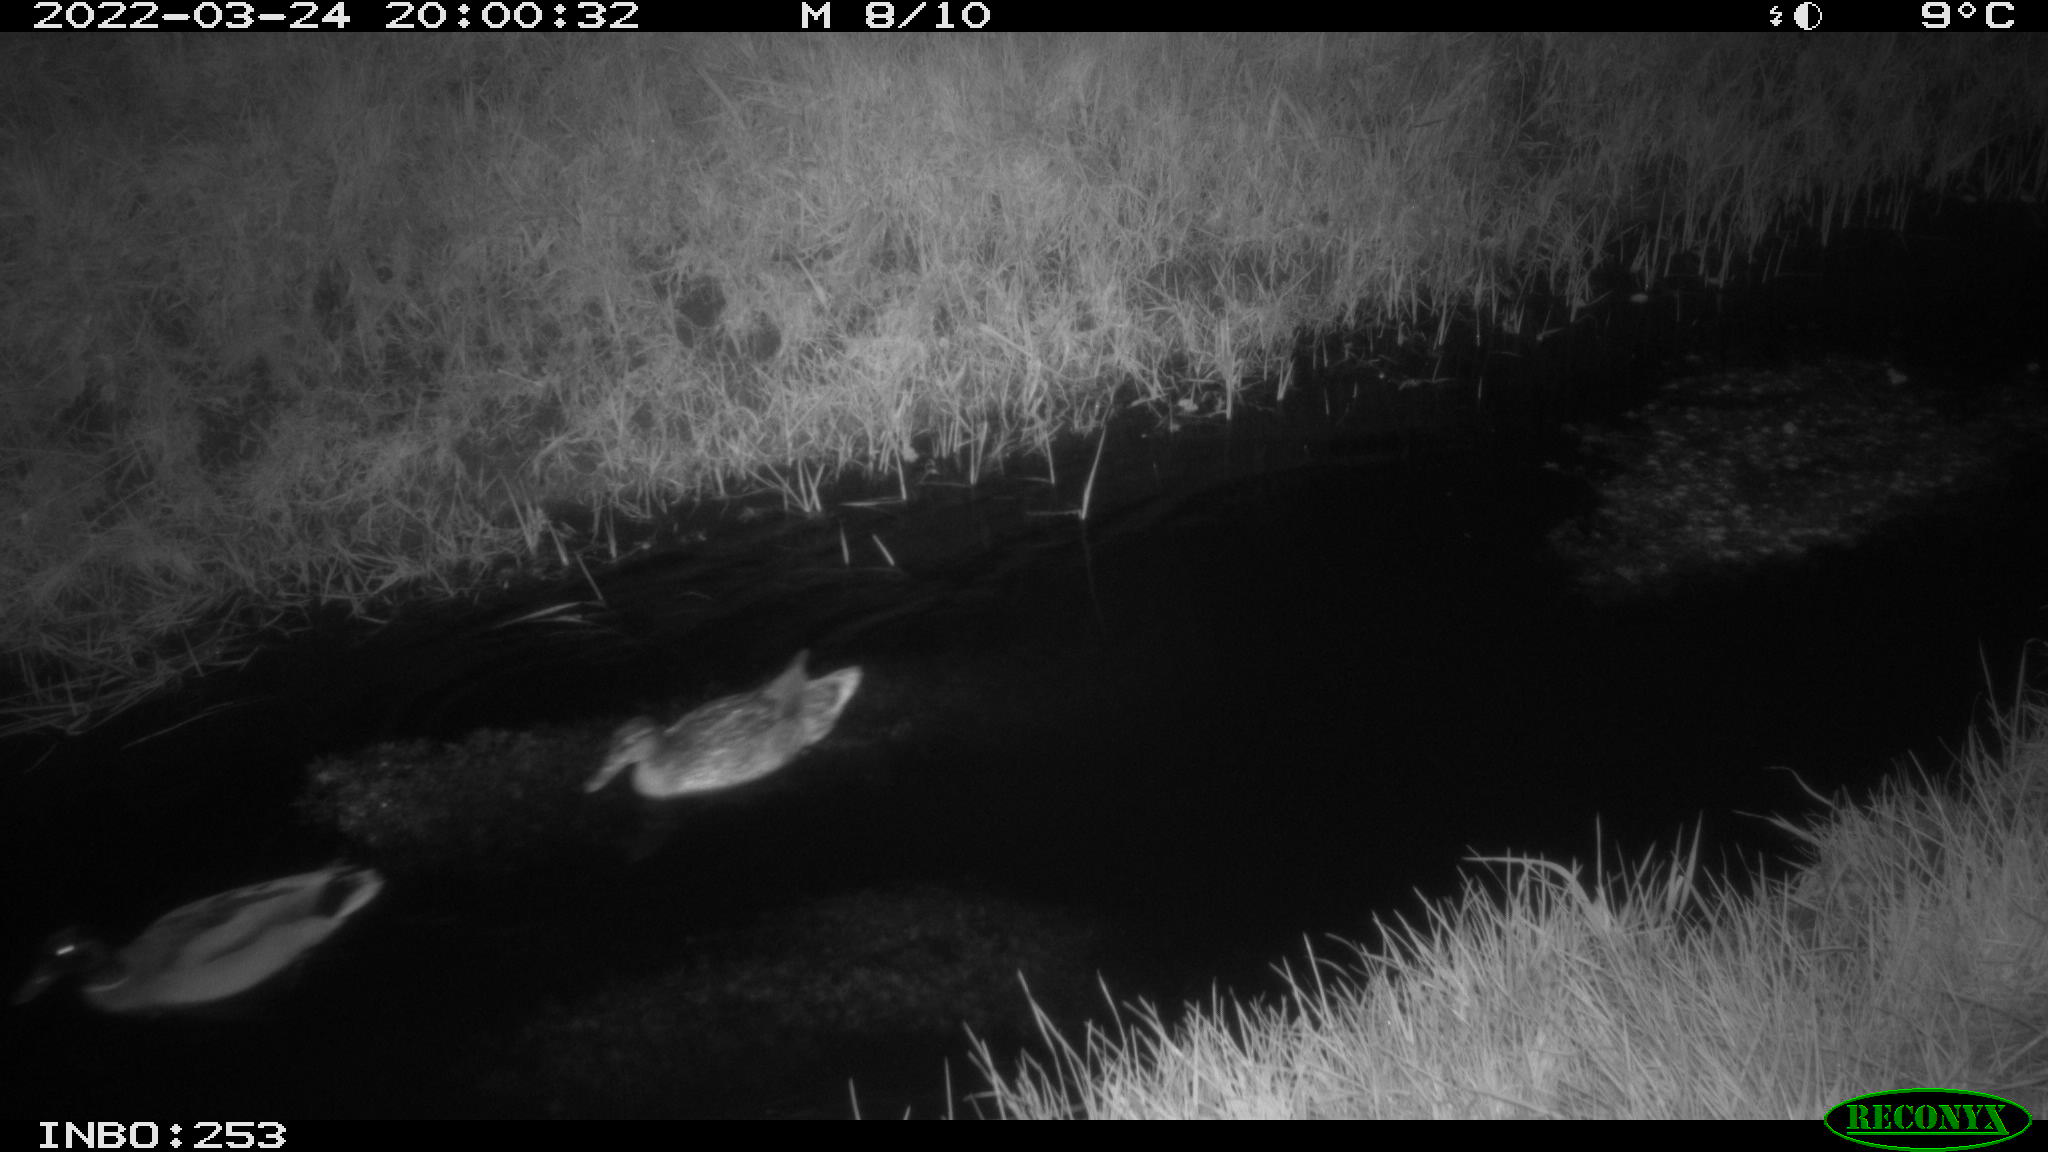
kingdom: Animalia
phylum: Chordata
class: Aves
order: Anseriformes
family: Anatidae
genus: Anas
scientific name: Anas platyrhynchos
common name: Mallard
